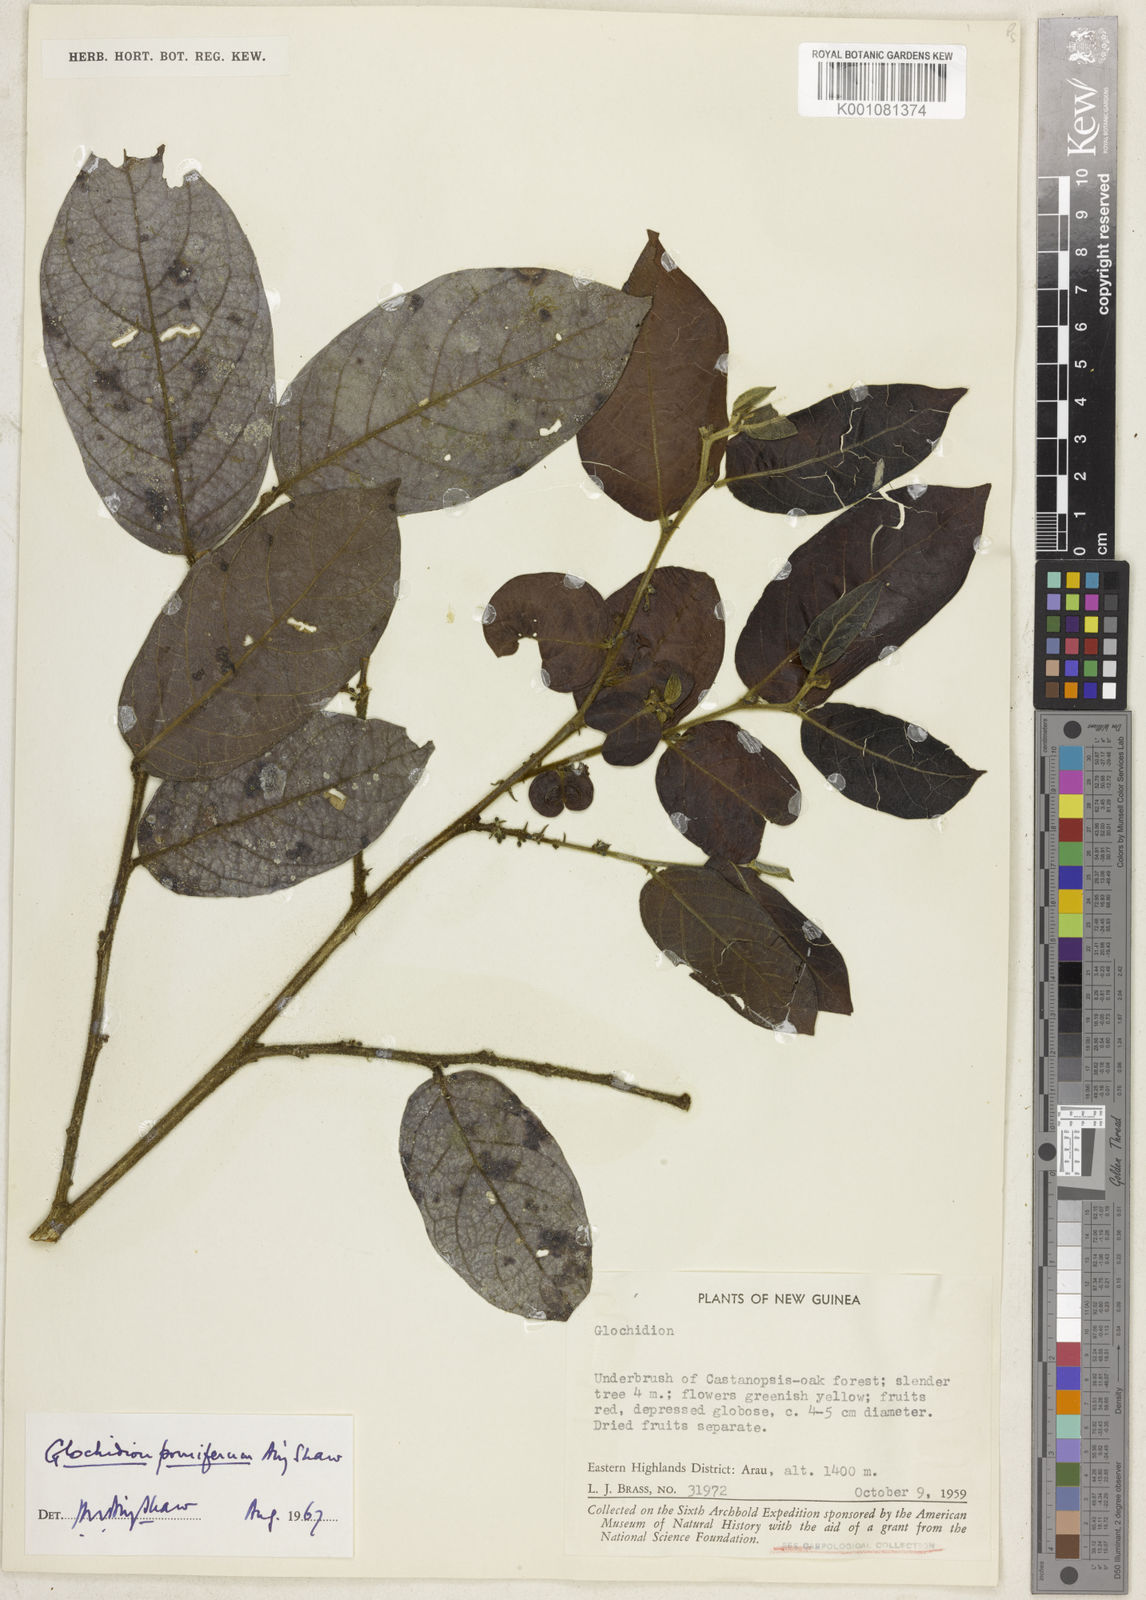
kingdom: Plantae
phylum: Tracheophyta
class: Magnoliopsida
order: Malpighiales
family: Phyllanthaceae
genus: Glochidion
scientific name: Glochidion pomiferum
